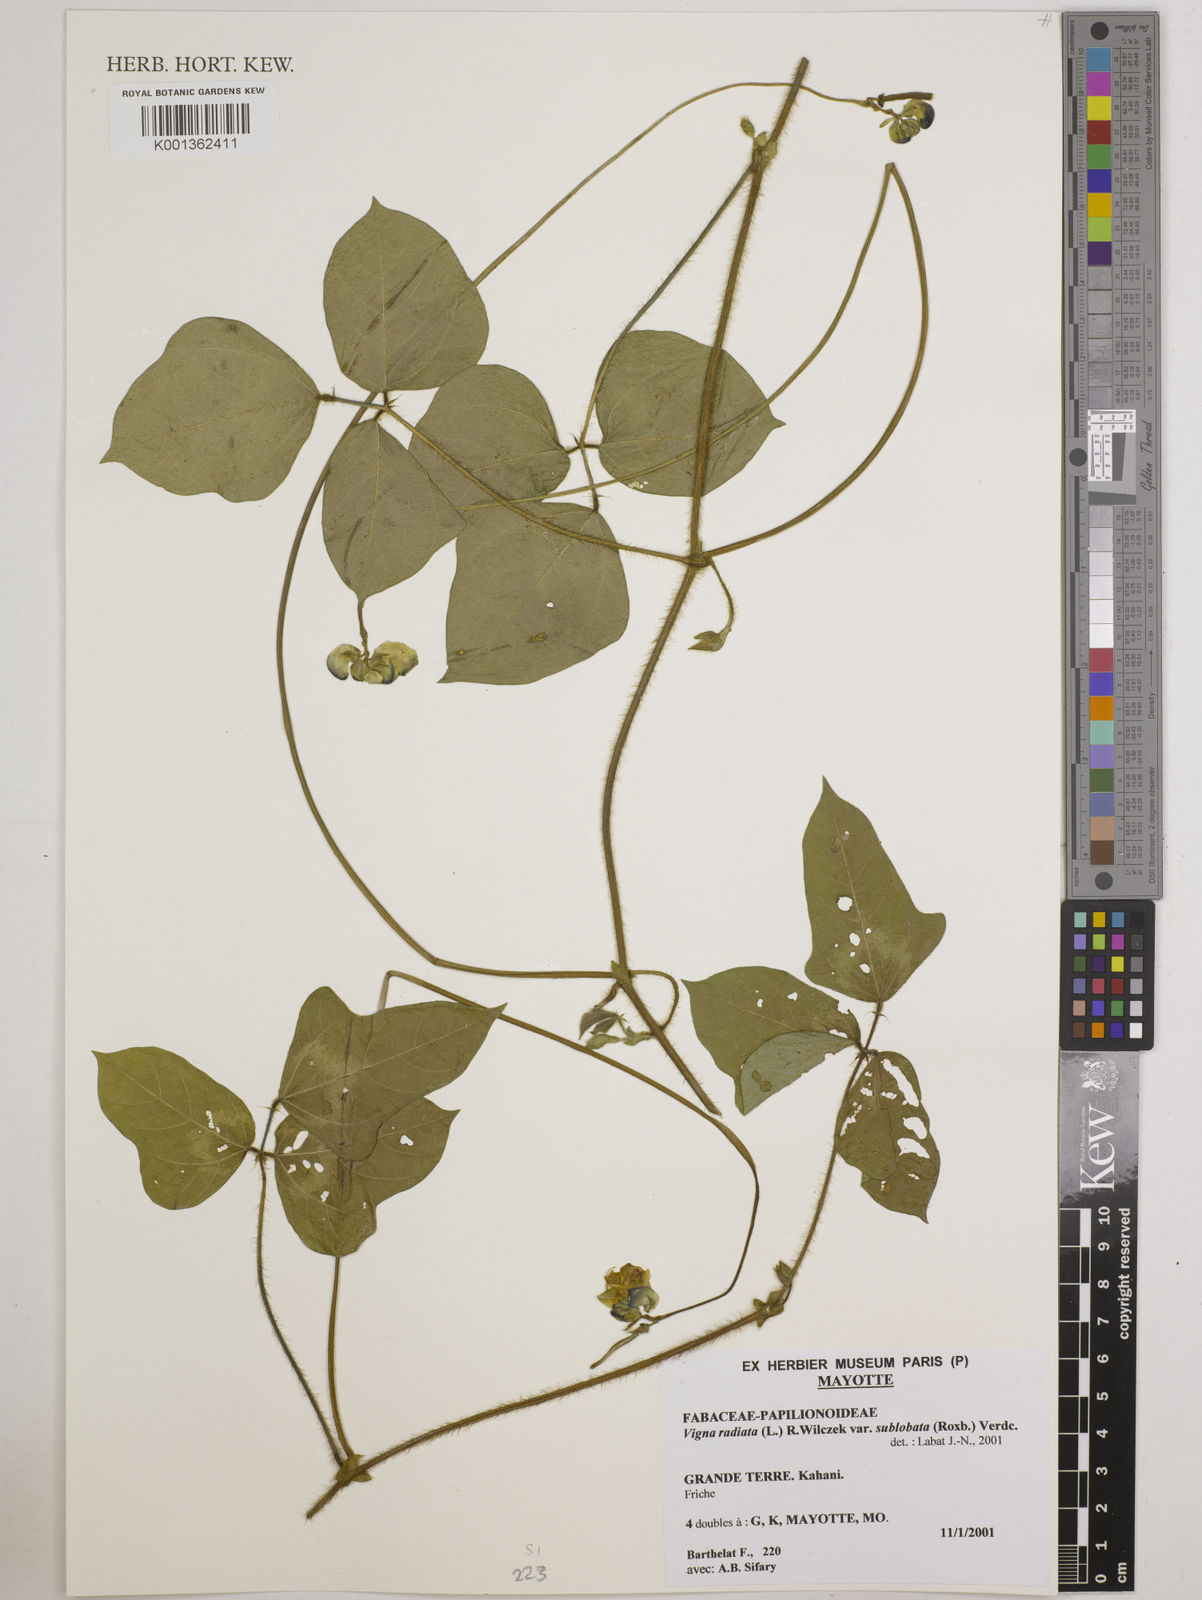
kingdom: Plantae
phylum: Tracheophyta
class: Magnoliopsida
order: Fabales
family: Fabaceae
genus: Vigna
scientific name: Vigna radiata
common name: Mung-bean
